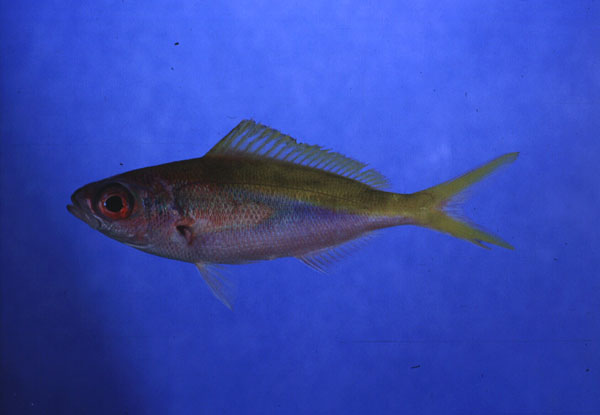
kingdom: Animalia
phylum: Chordata
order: Perciformes
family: Caesionidae
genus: Caesio
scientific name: Caesio xanthonota
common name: Yellowback fusilier
